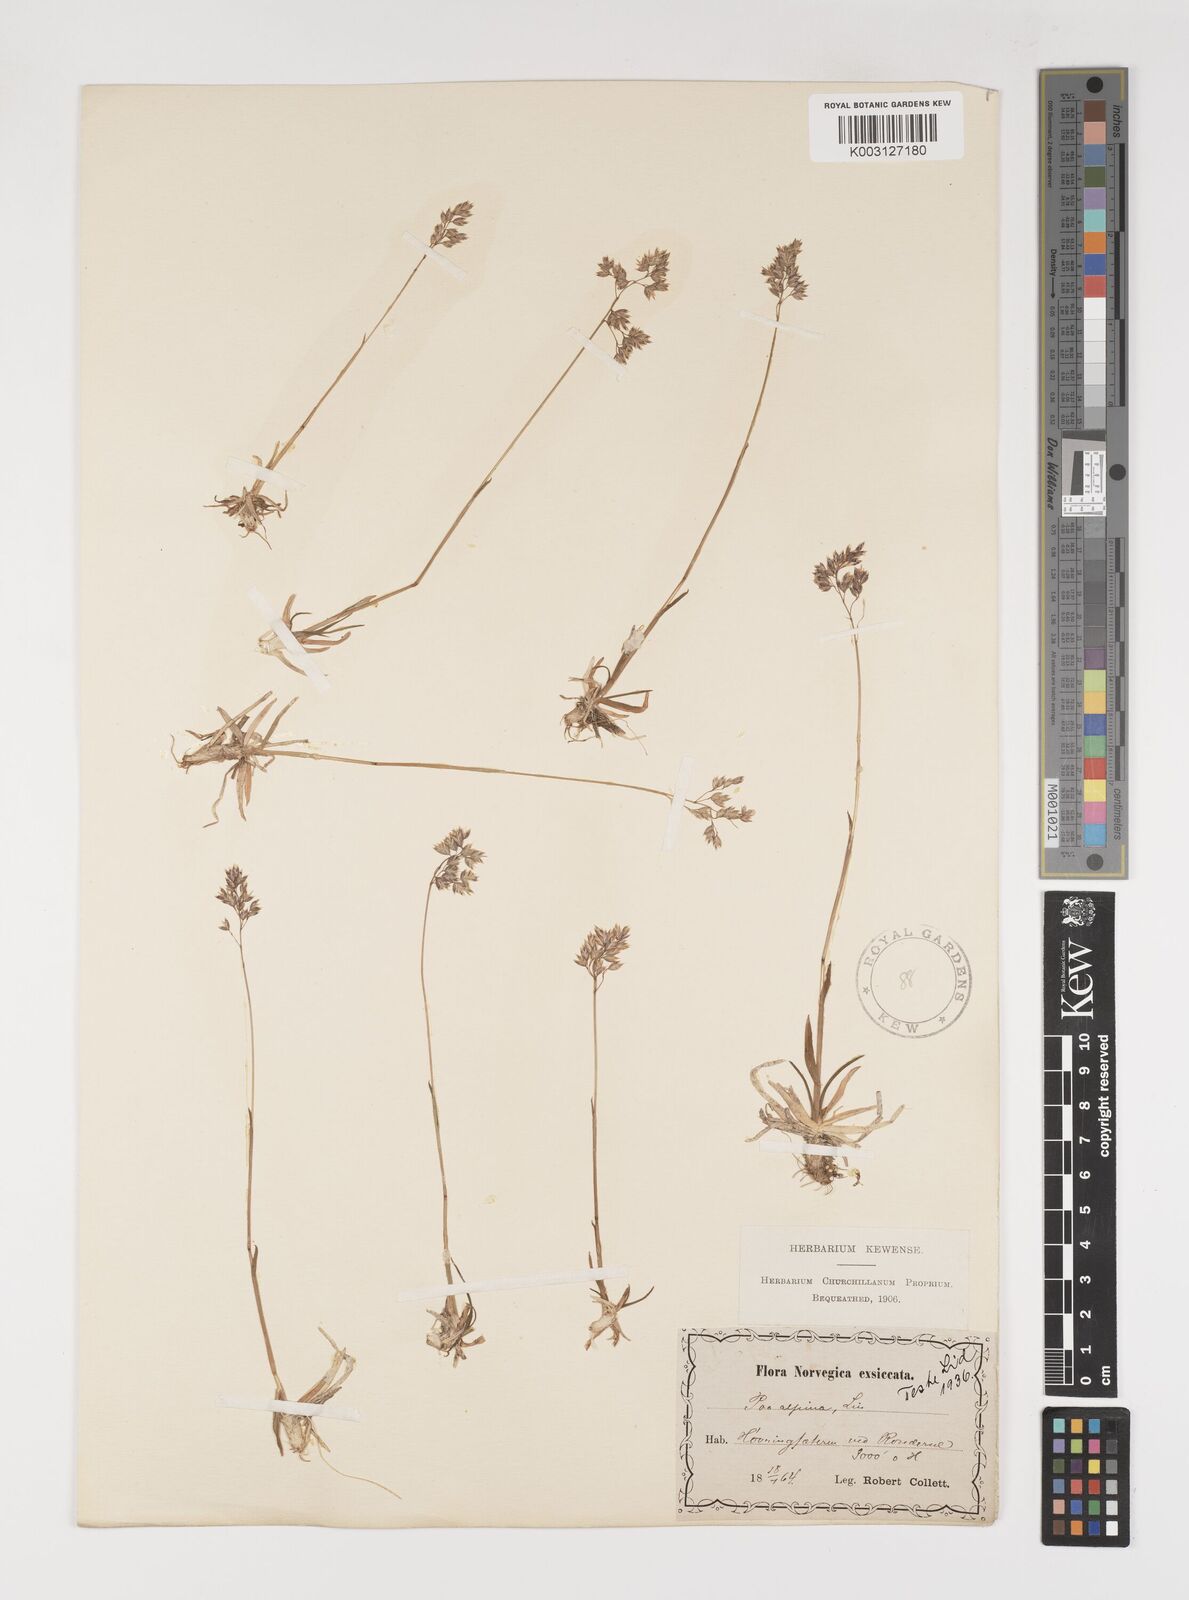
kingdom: Plantae
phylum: Tracheophyta
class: Liliopsida
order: Poales
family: Poaceae
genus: Poa
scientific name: Poa alpina
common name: Alpine bluegrass
